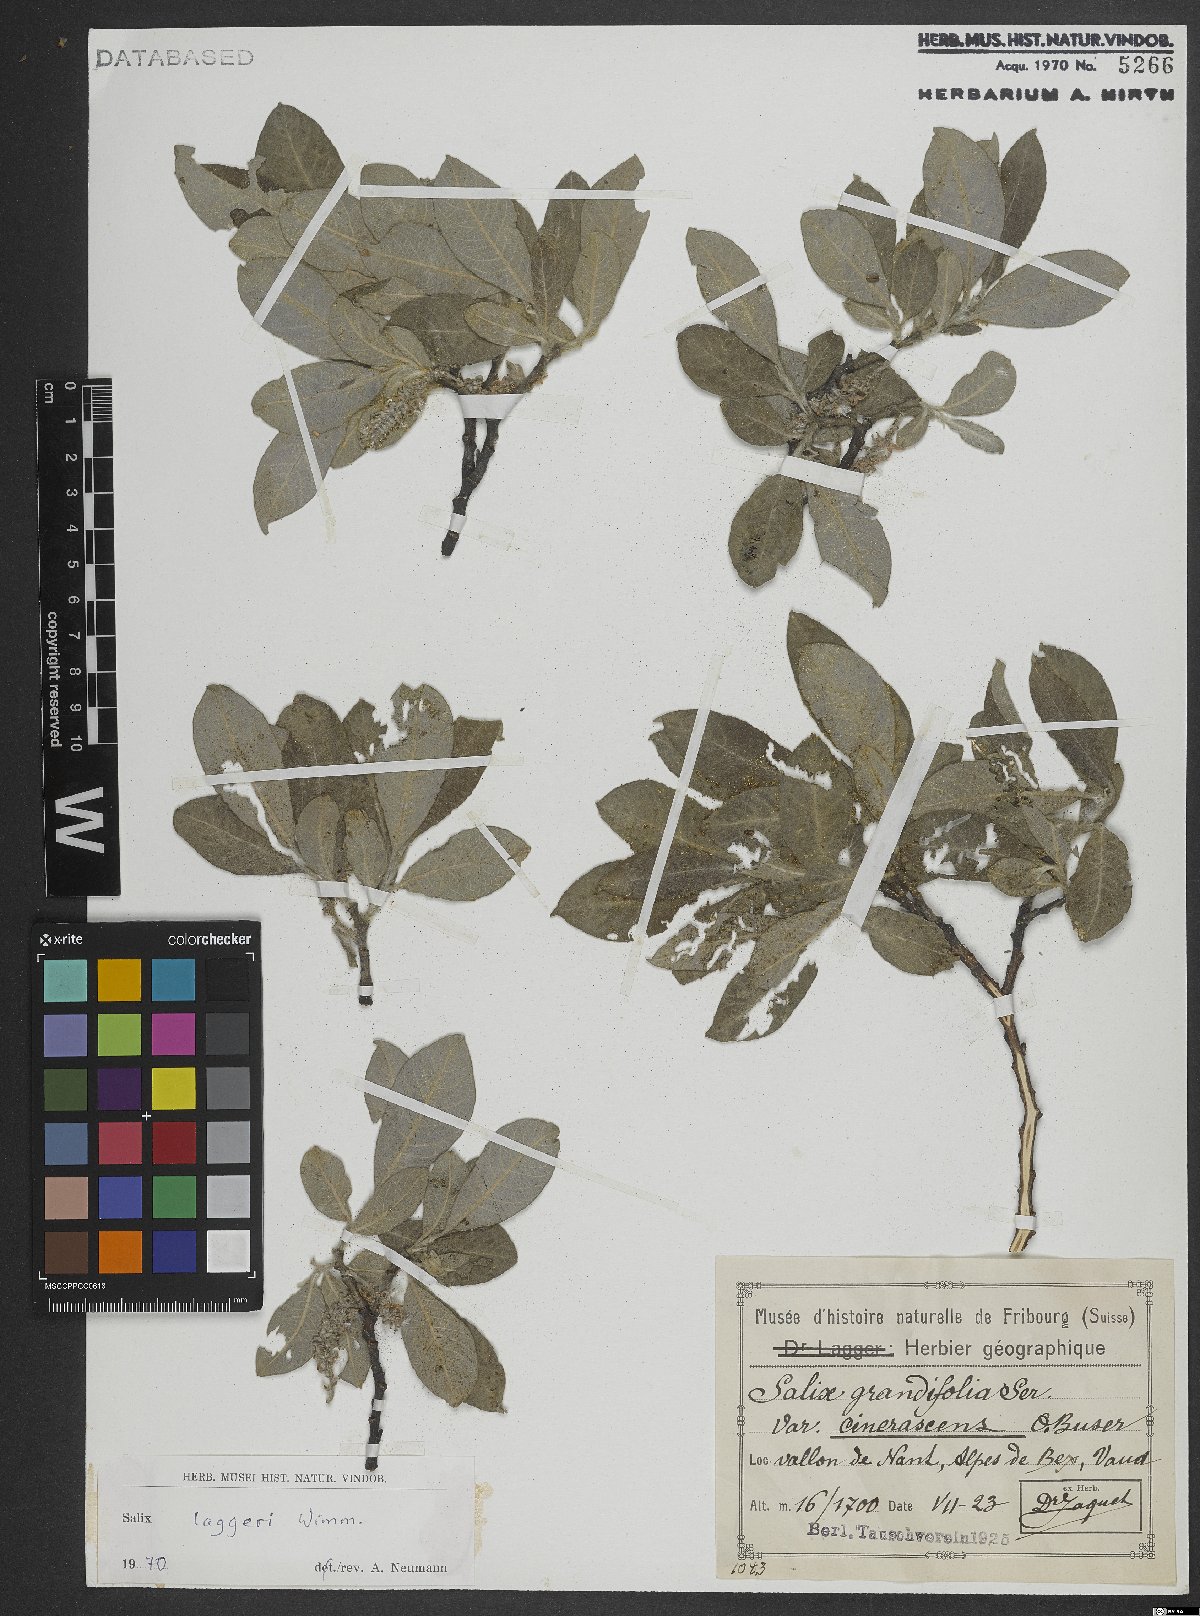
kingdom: Plantae
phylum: Tracheophyta
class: Magnoliopsida
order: Malpighiales
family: Salicaceae
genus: Salix
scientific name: Salix laggeri
